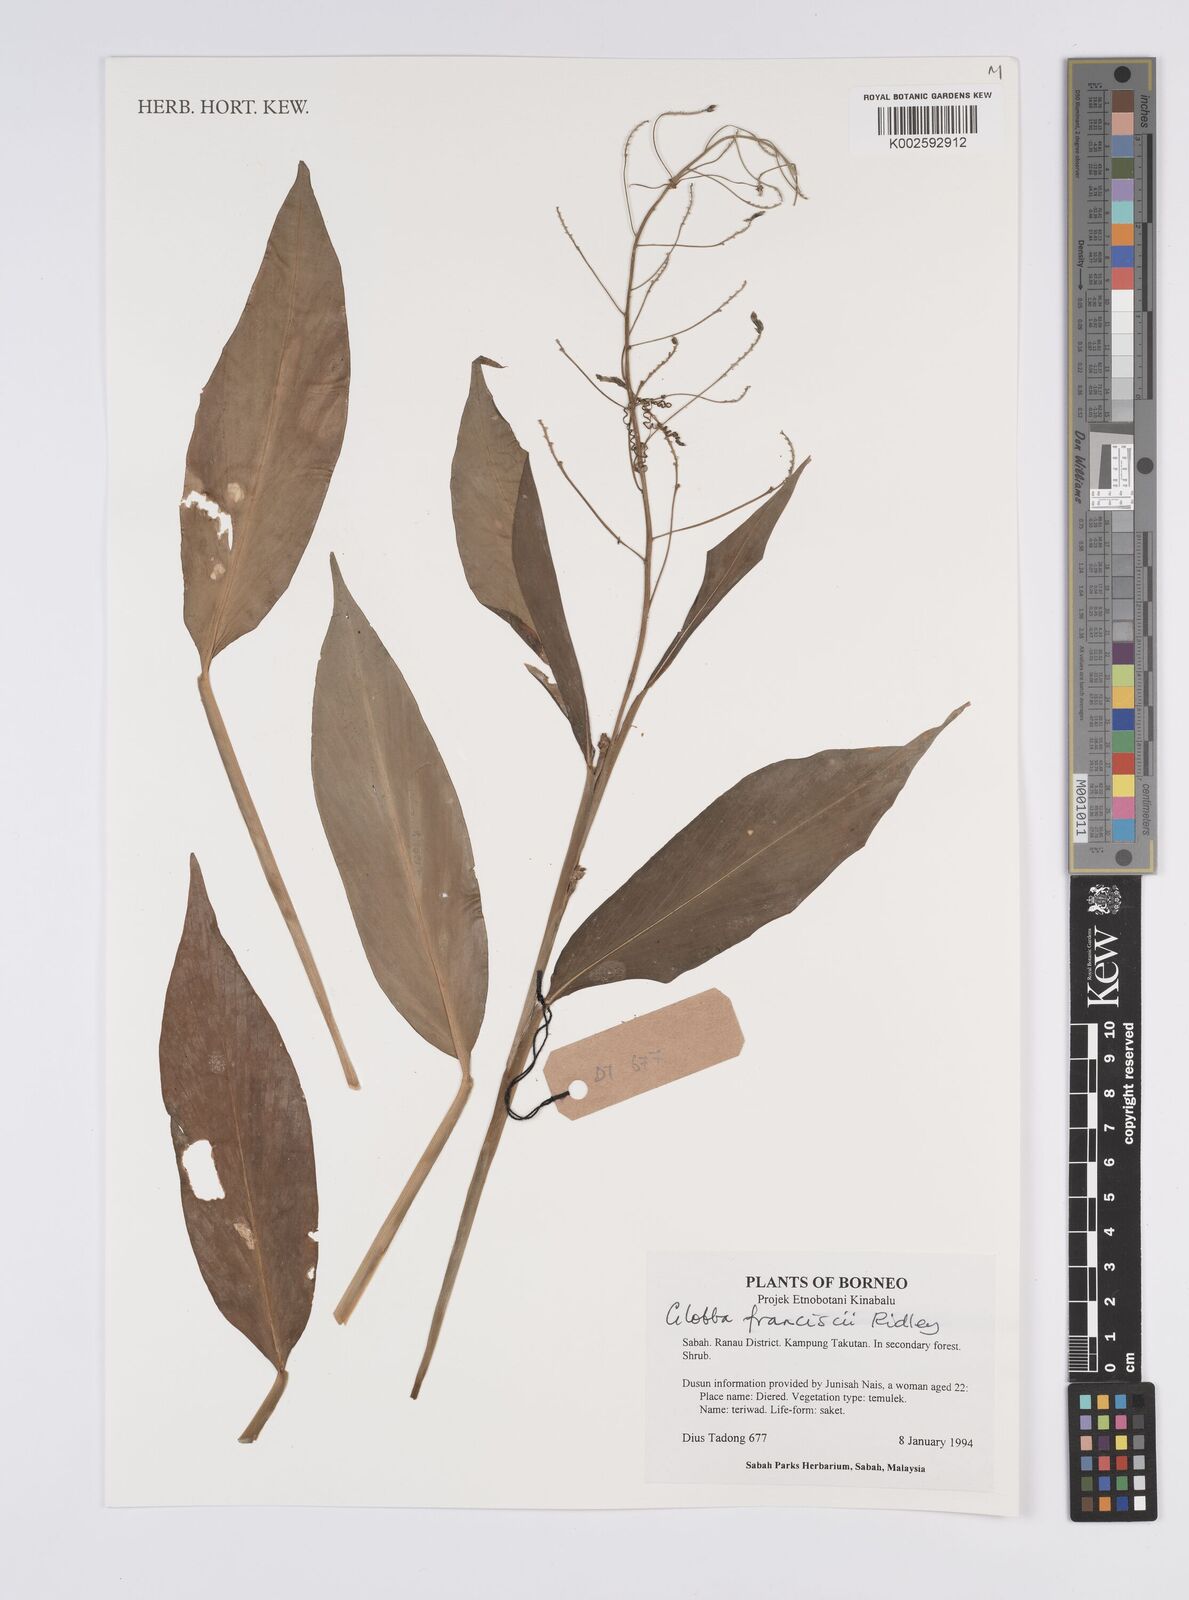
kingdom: Plantae
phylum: Tracheophyta
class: Liliopsida
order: Zingiberales
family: Zingiberaceae
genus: Globba
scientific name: Globba francisci
